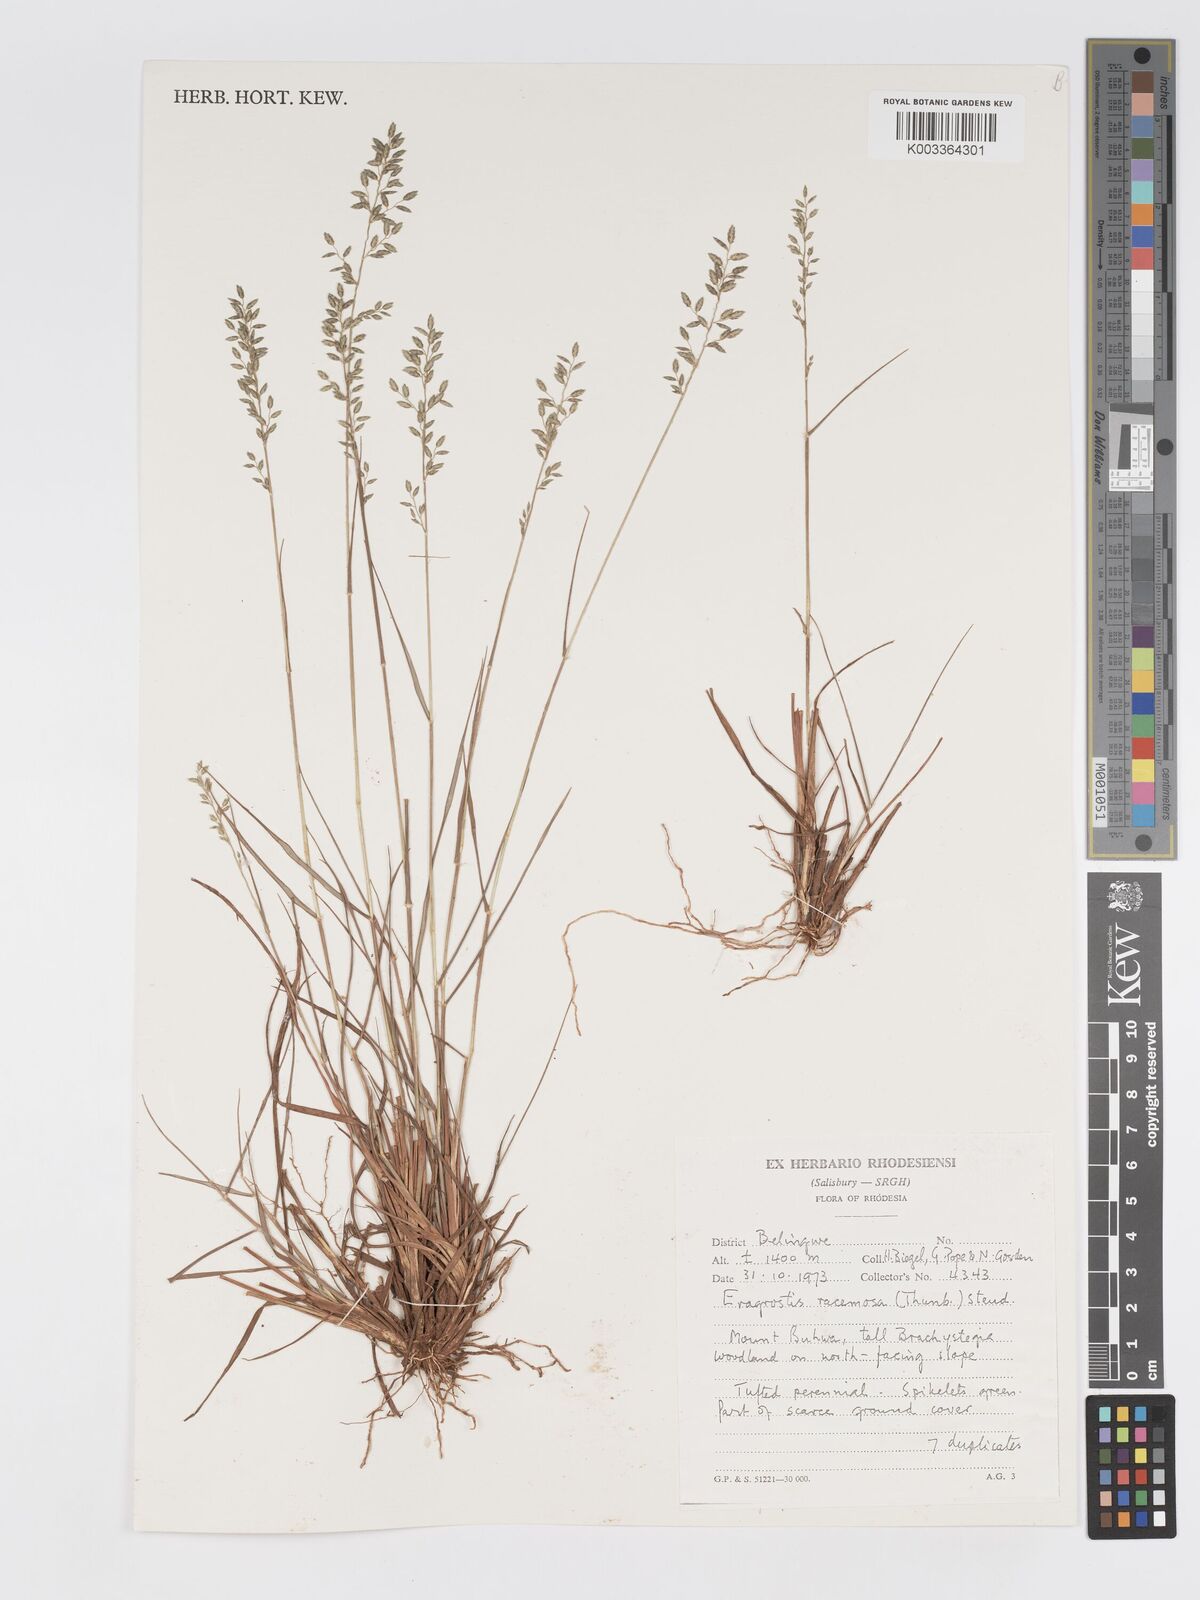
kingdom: Plantae
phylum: Tracheophyta
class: Liliopsida
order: Poales
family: Poaceae
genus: Eragrostis
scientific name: Eragrostis racemosa
